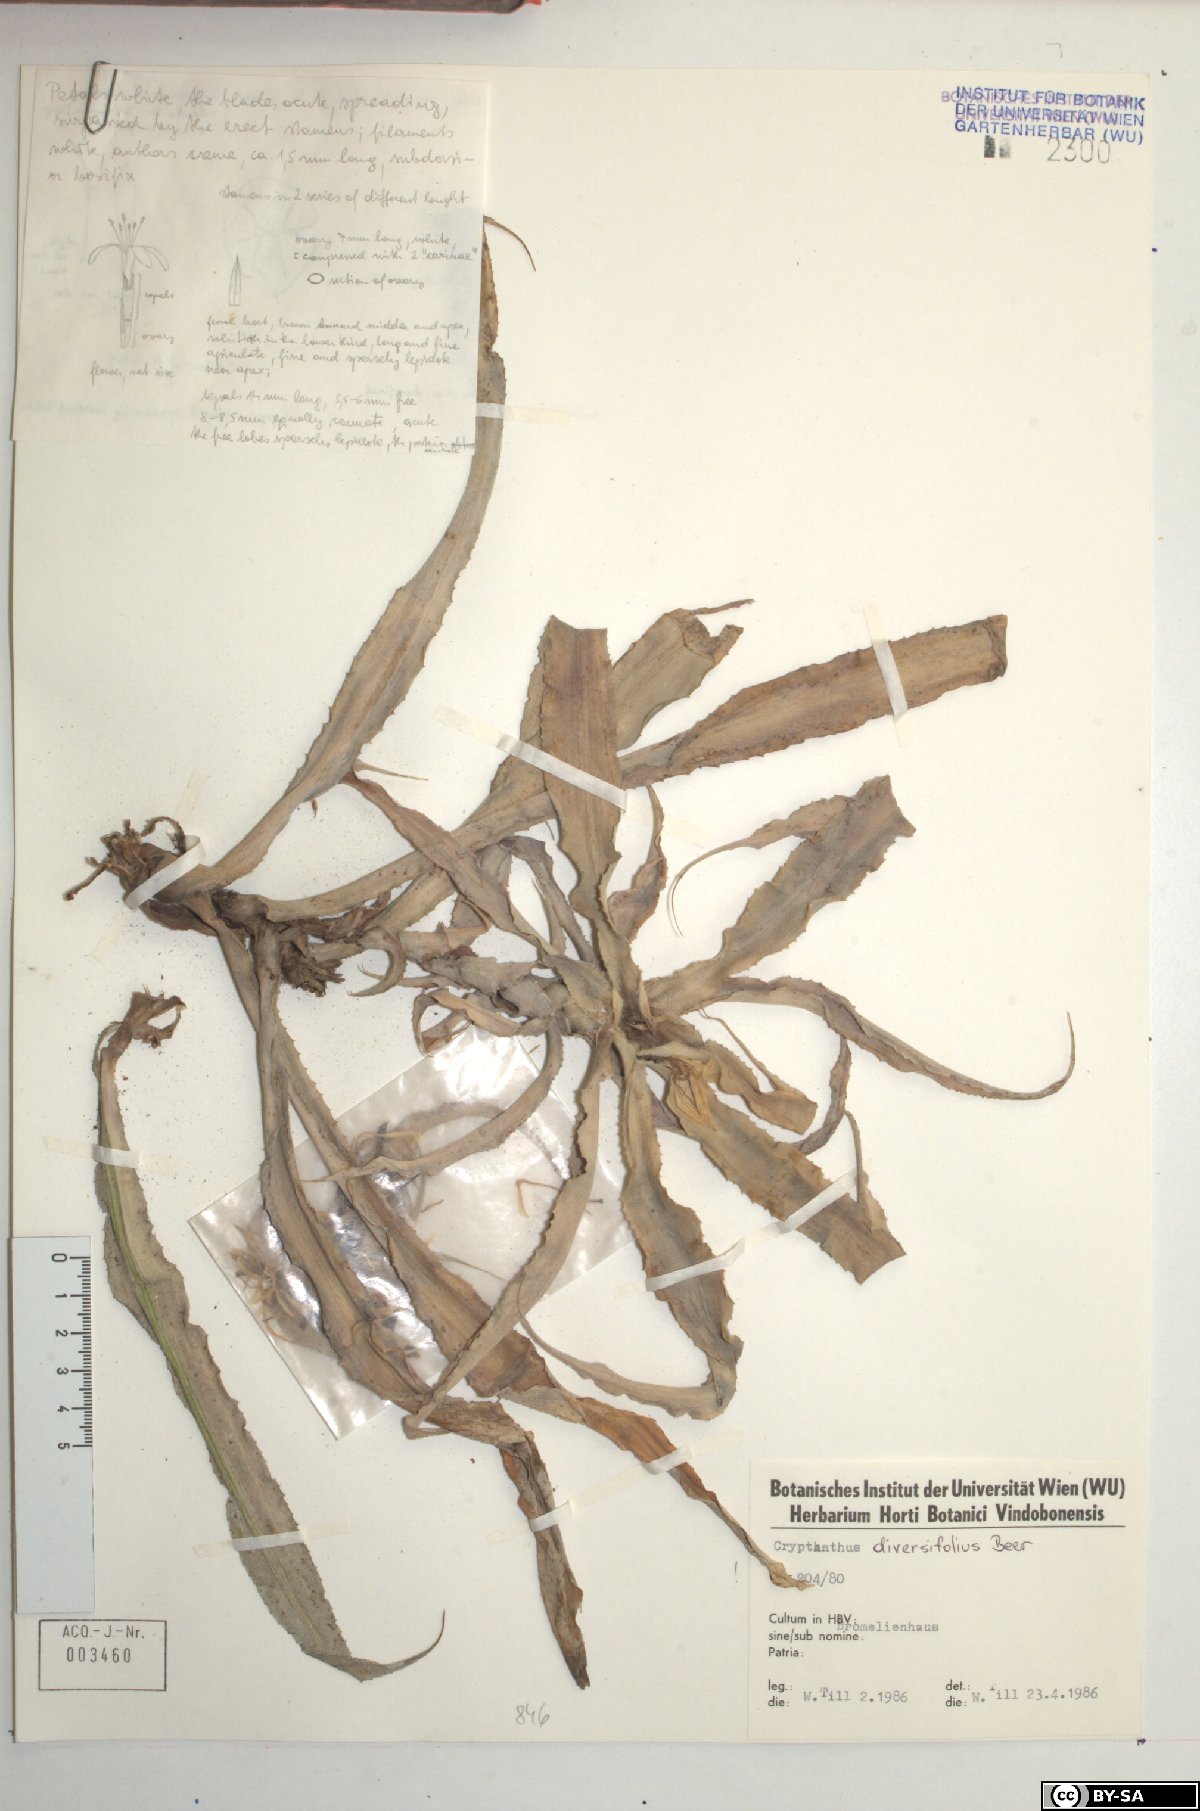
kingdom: Plantae
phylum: Tracheophyta
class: Liliopsida
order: Poales
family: Bromeliaceae
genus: Cryptanthus
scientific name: Cryptanthus bromelioides
